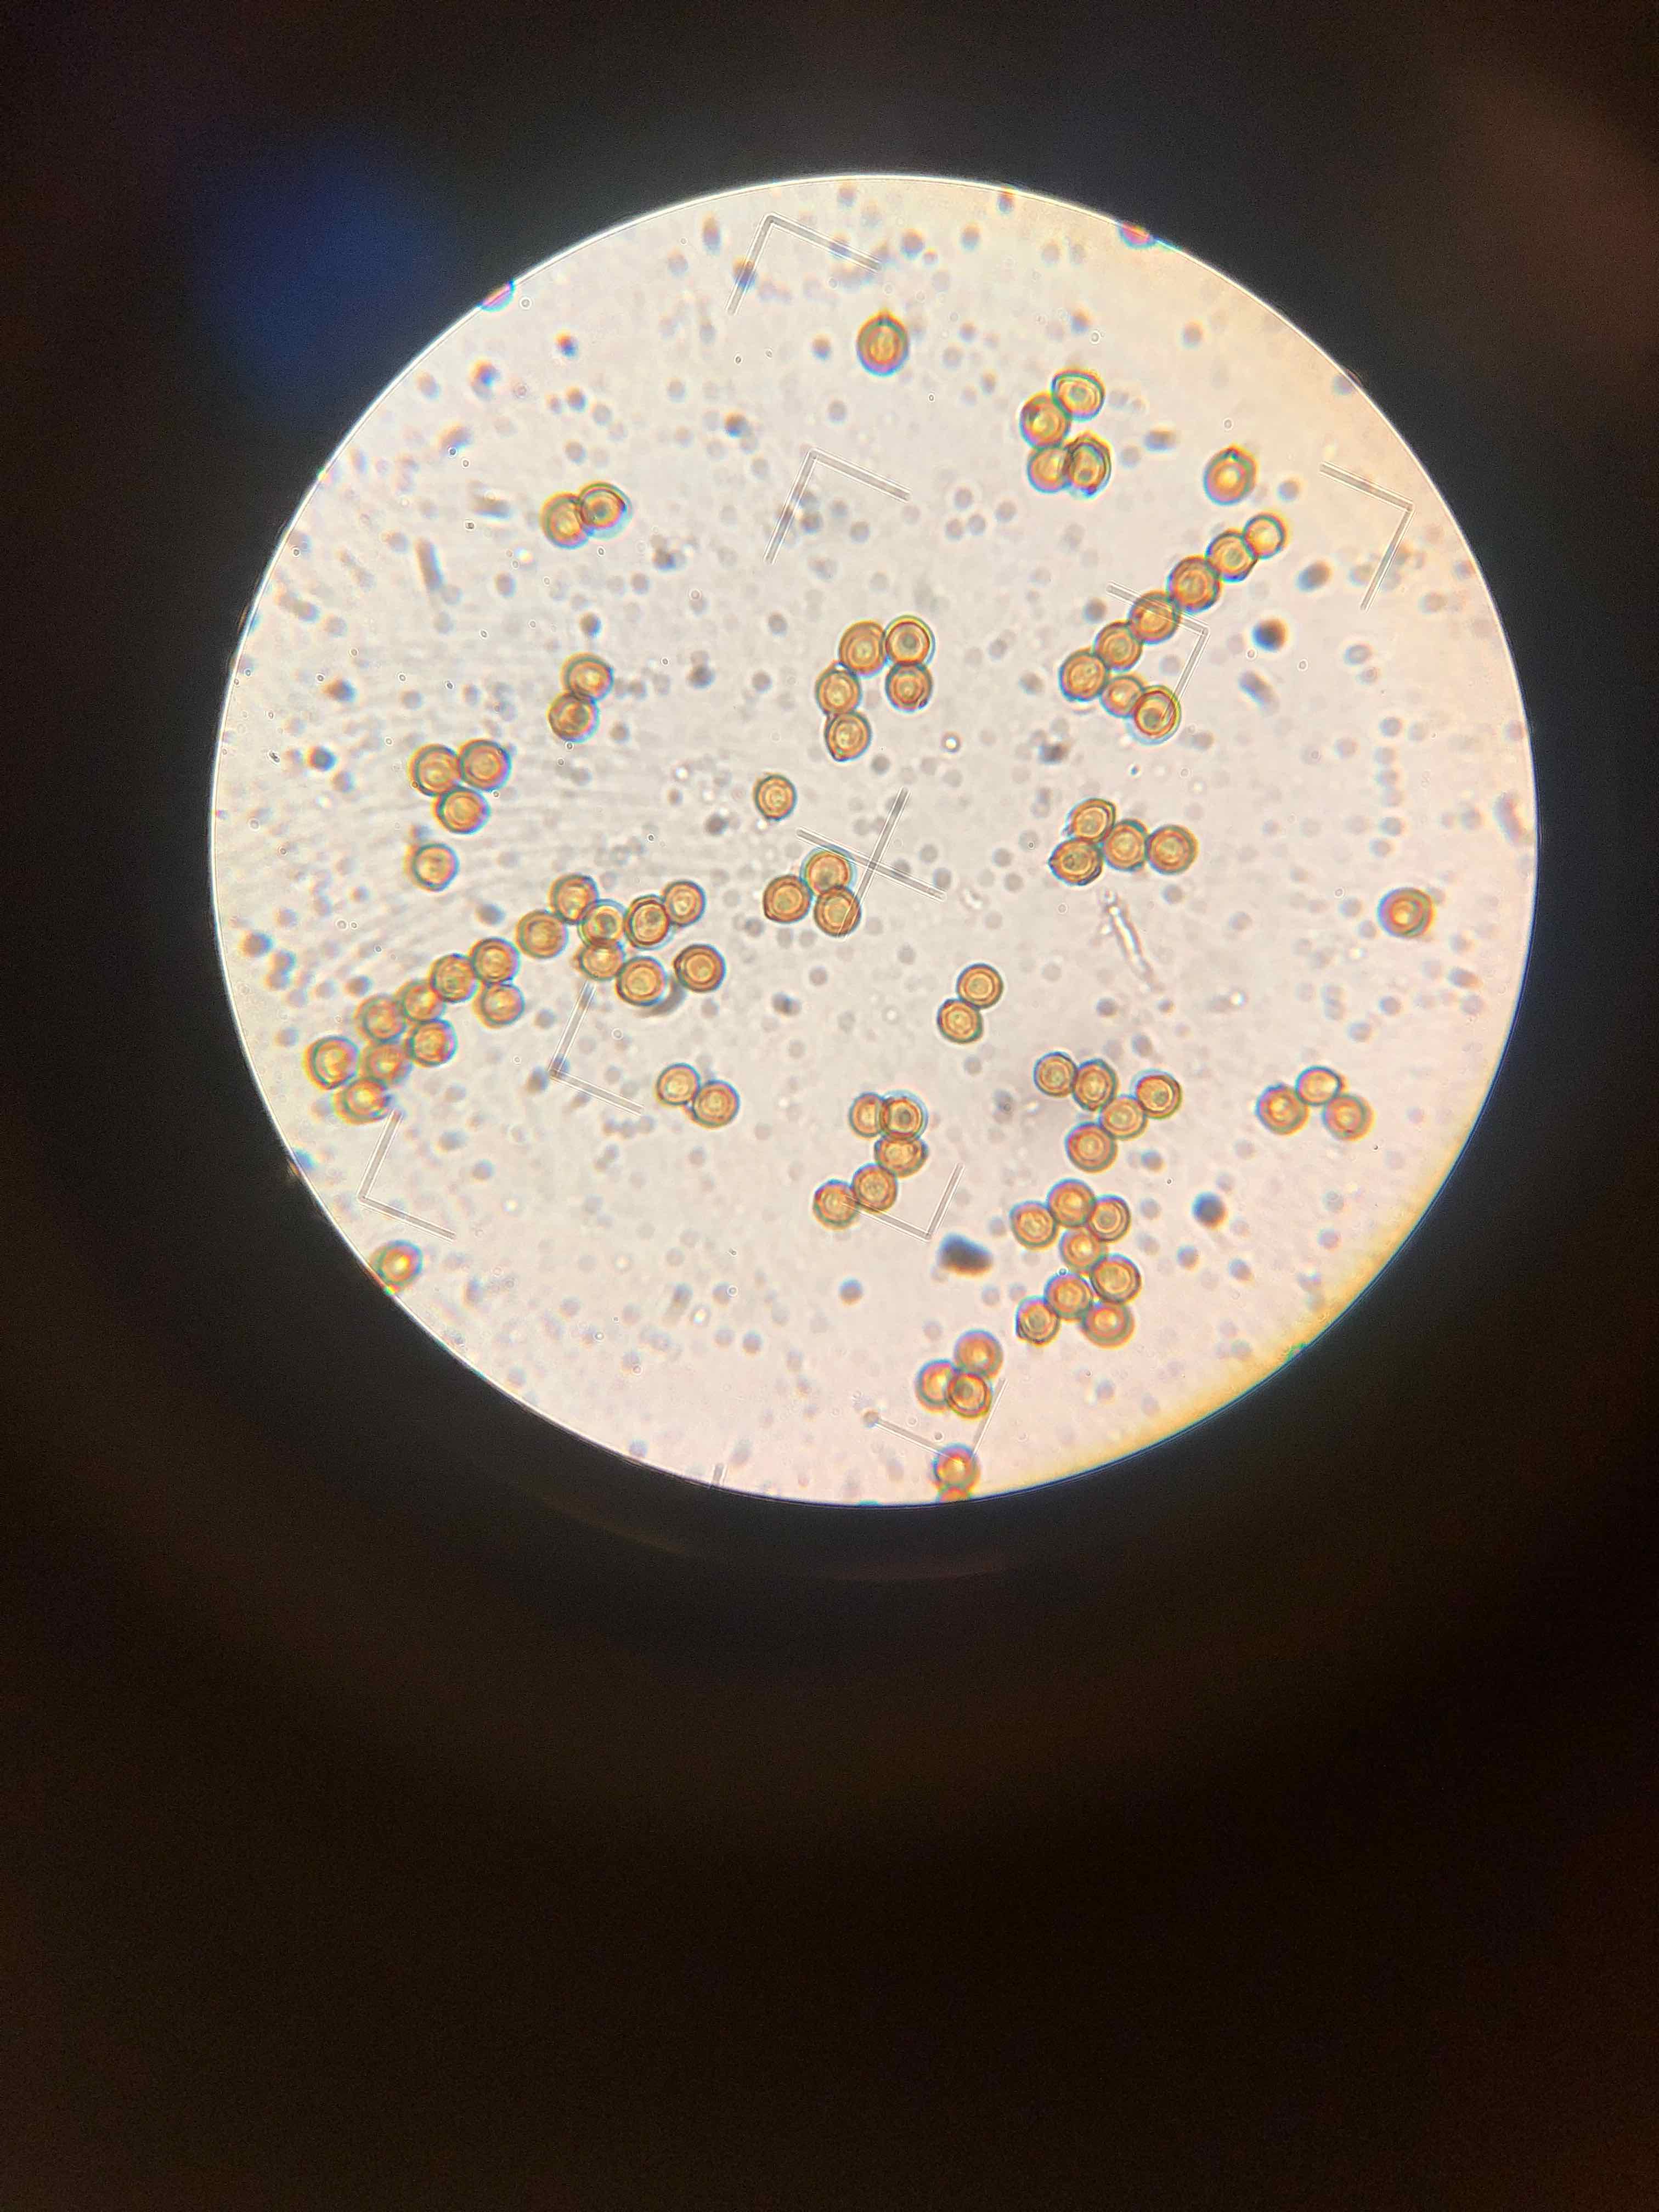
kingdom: Fungi
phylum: Basidiomycota
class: Agaricomycetes
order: Agaricales
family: Lycoperdaceae
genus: Bovistella
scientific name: Bovistella utriformis
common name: skællet støvbold
